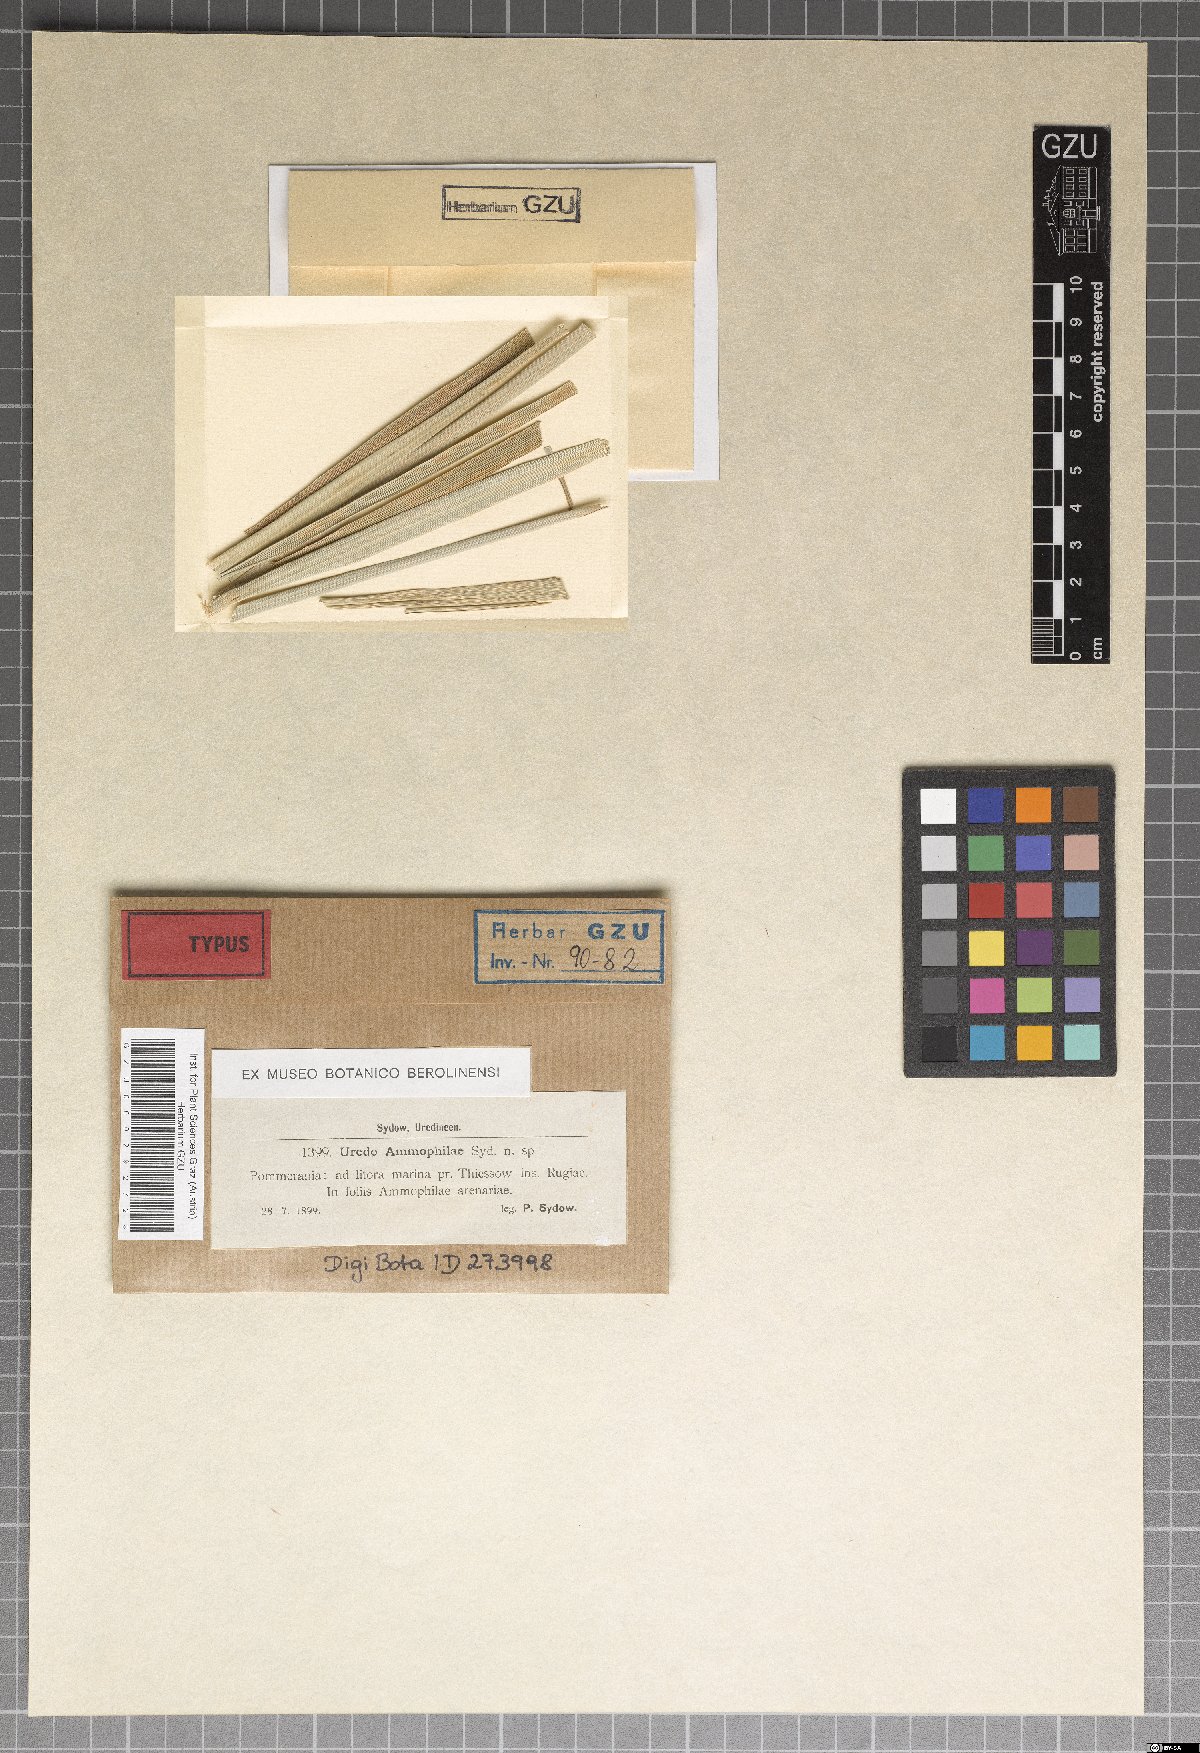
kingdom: Fungi
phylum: Basidiomycota
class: Pucciniomycetes
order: Pucciniales
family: Pucciniaceae
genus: Puccinia
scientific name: Puccinia elymi
